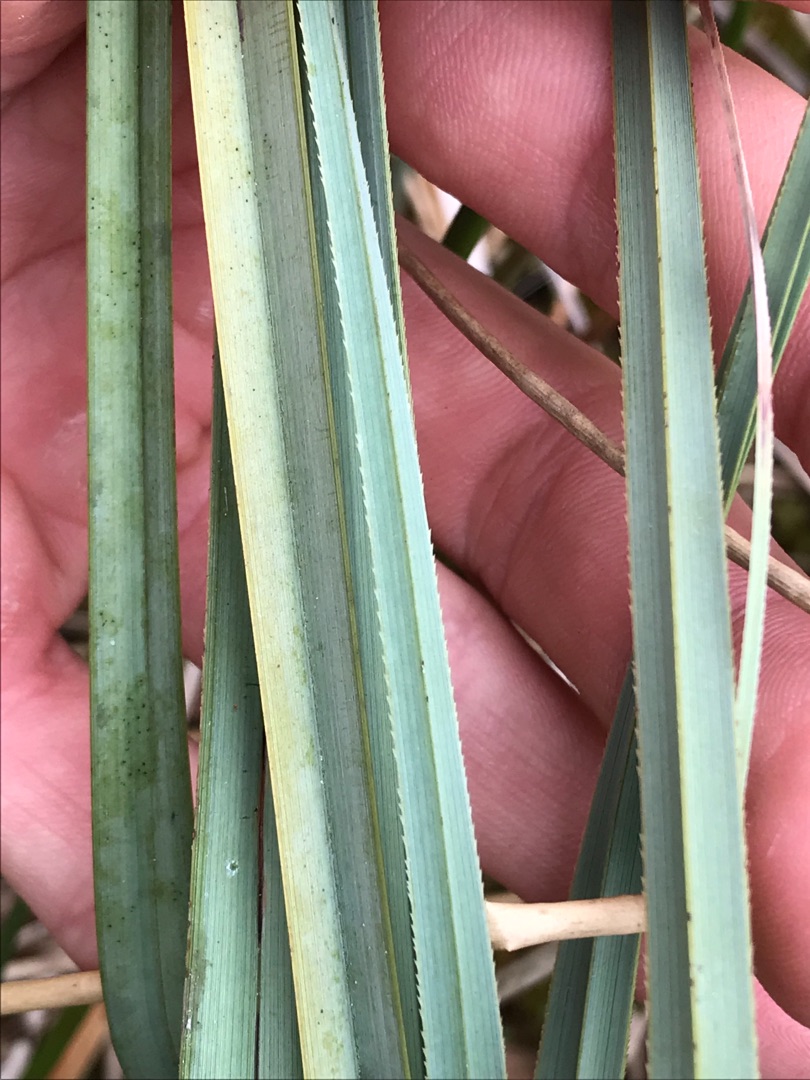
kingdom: Plantae
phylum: Tracheophyta
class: Liliopsida
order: Poales
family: Cyperaceae
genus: Cladium
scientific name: Cladium mariscus
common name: Hvas avneknippe
